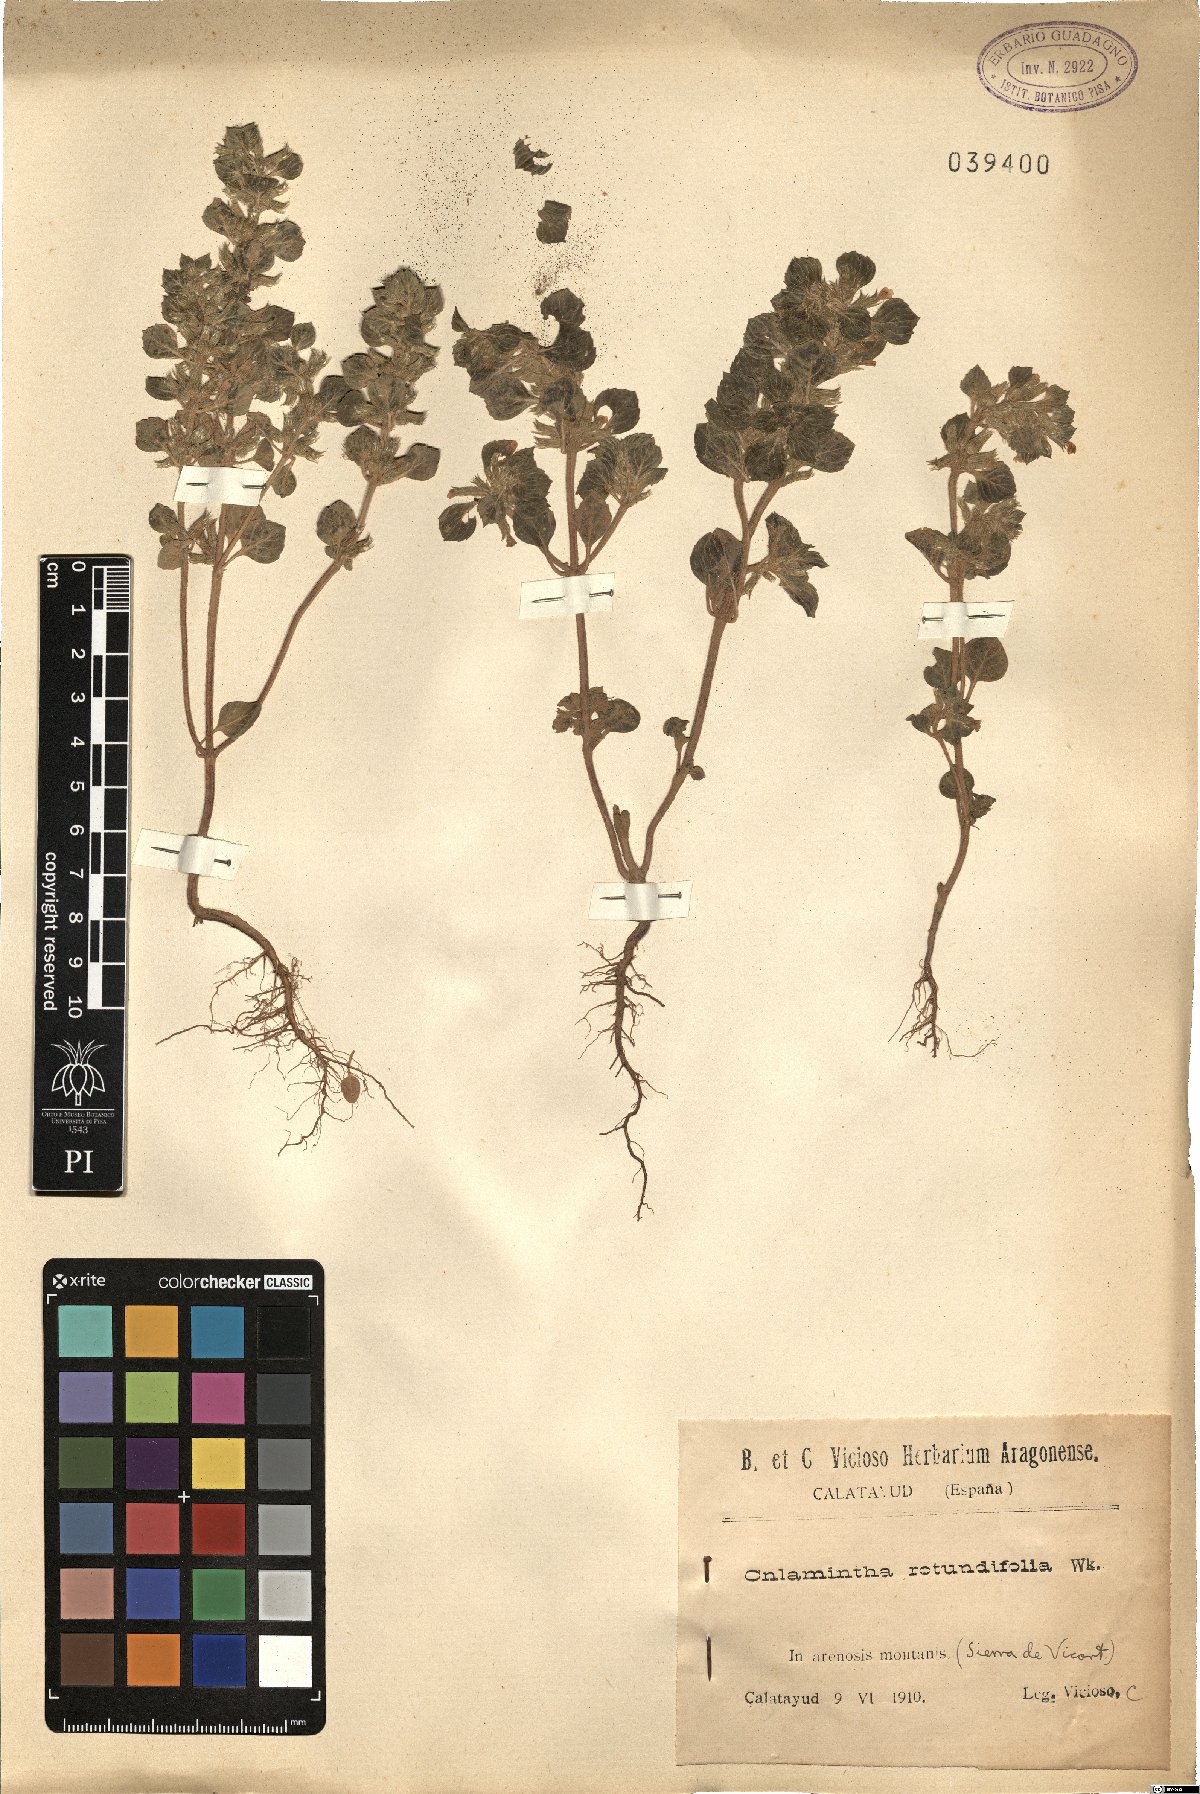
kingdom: Plantae
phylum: Tracheophyta
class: Magnoliopsida
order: Lamiales
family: Lamiaceae
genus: Clinopodium
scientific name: Clinopodium graveolens
